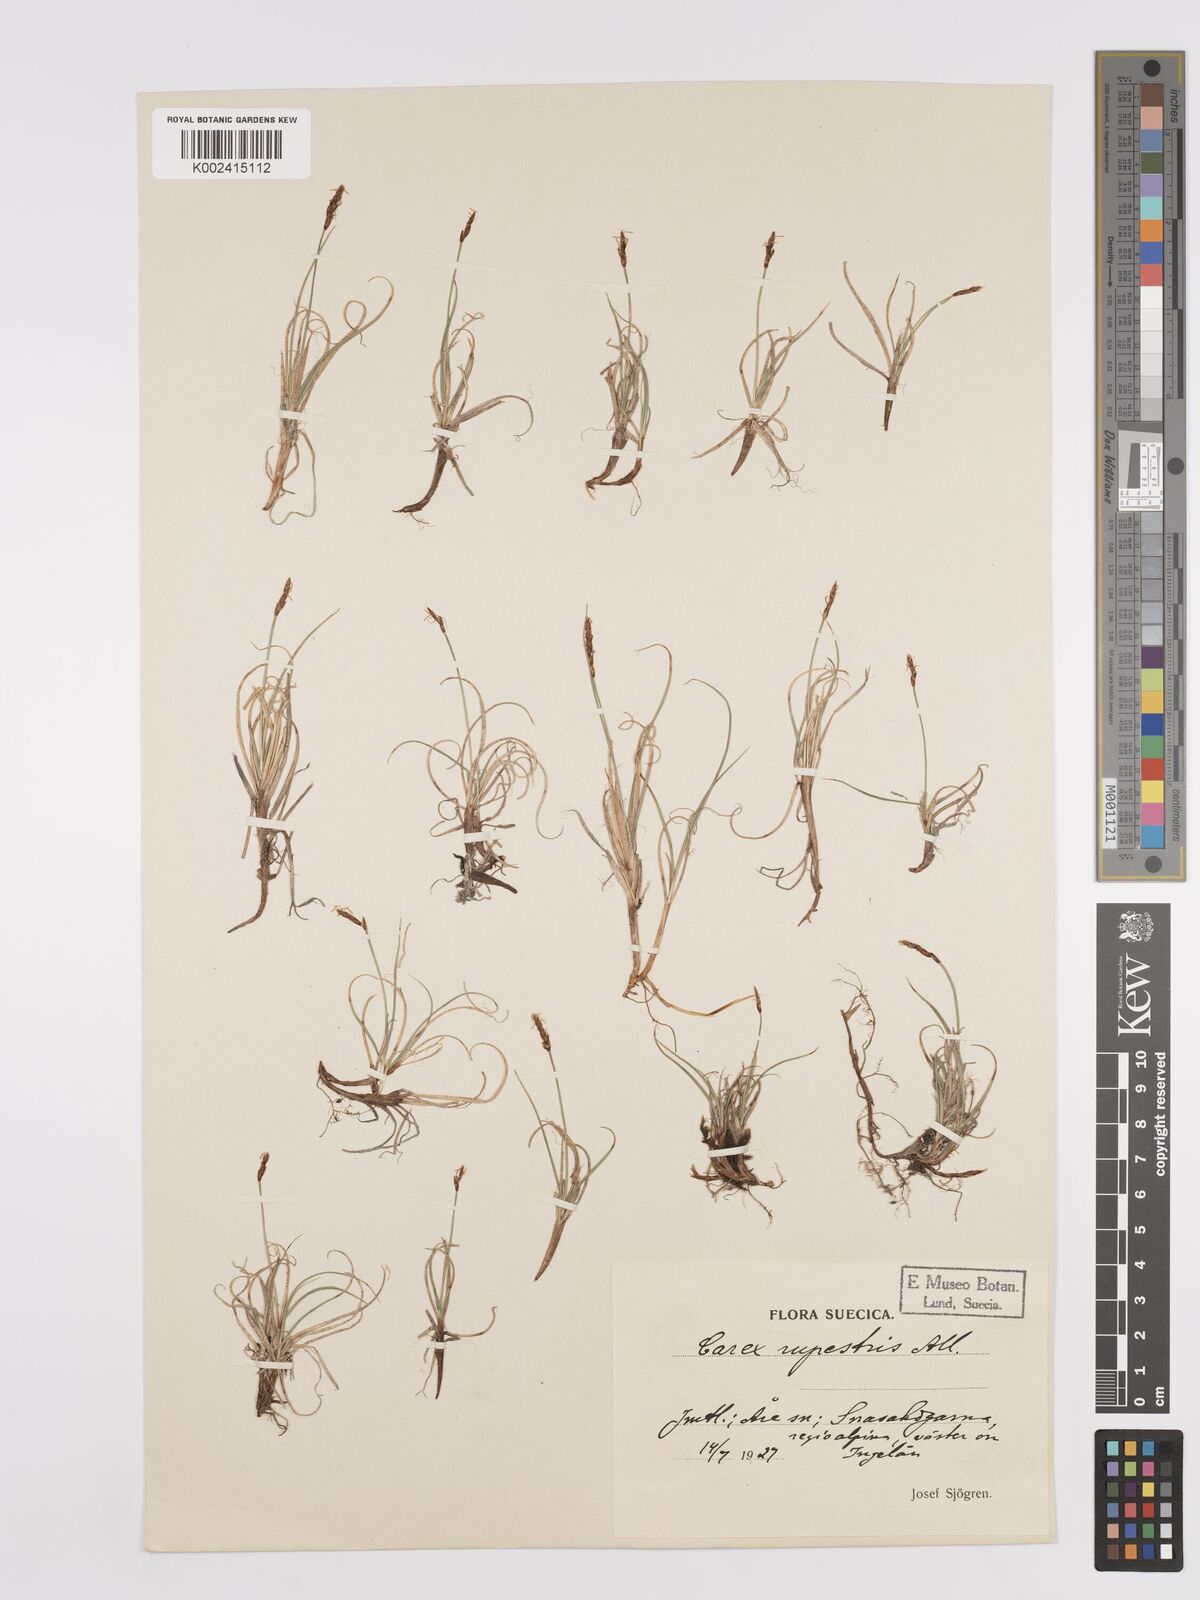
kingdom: Plantae
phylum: Tracheophyta
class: Liliopsida
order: Poales
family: Cyperaceae
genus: Carex
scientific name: Carex rupestris
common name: Rock sedge
